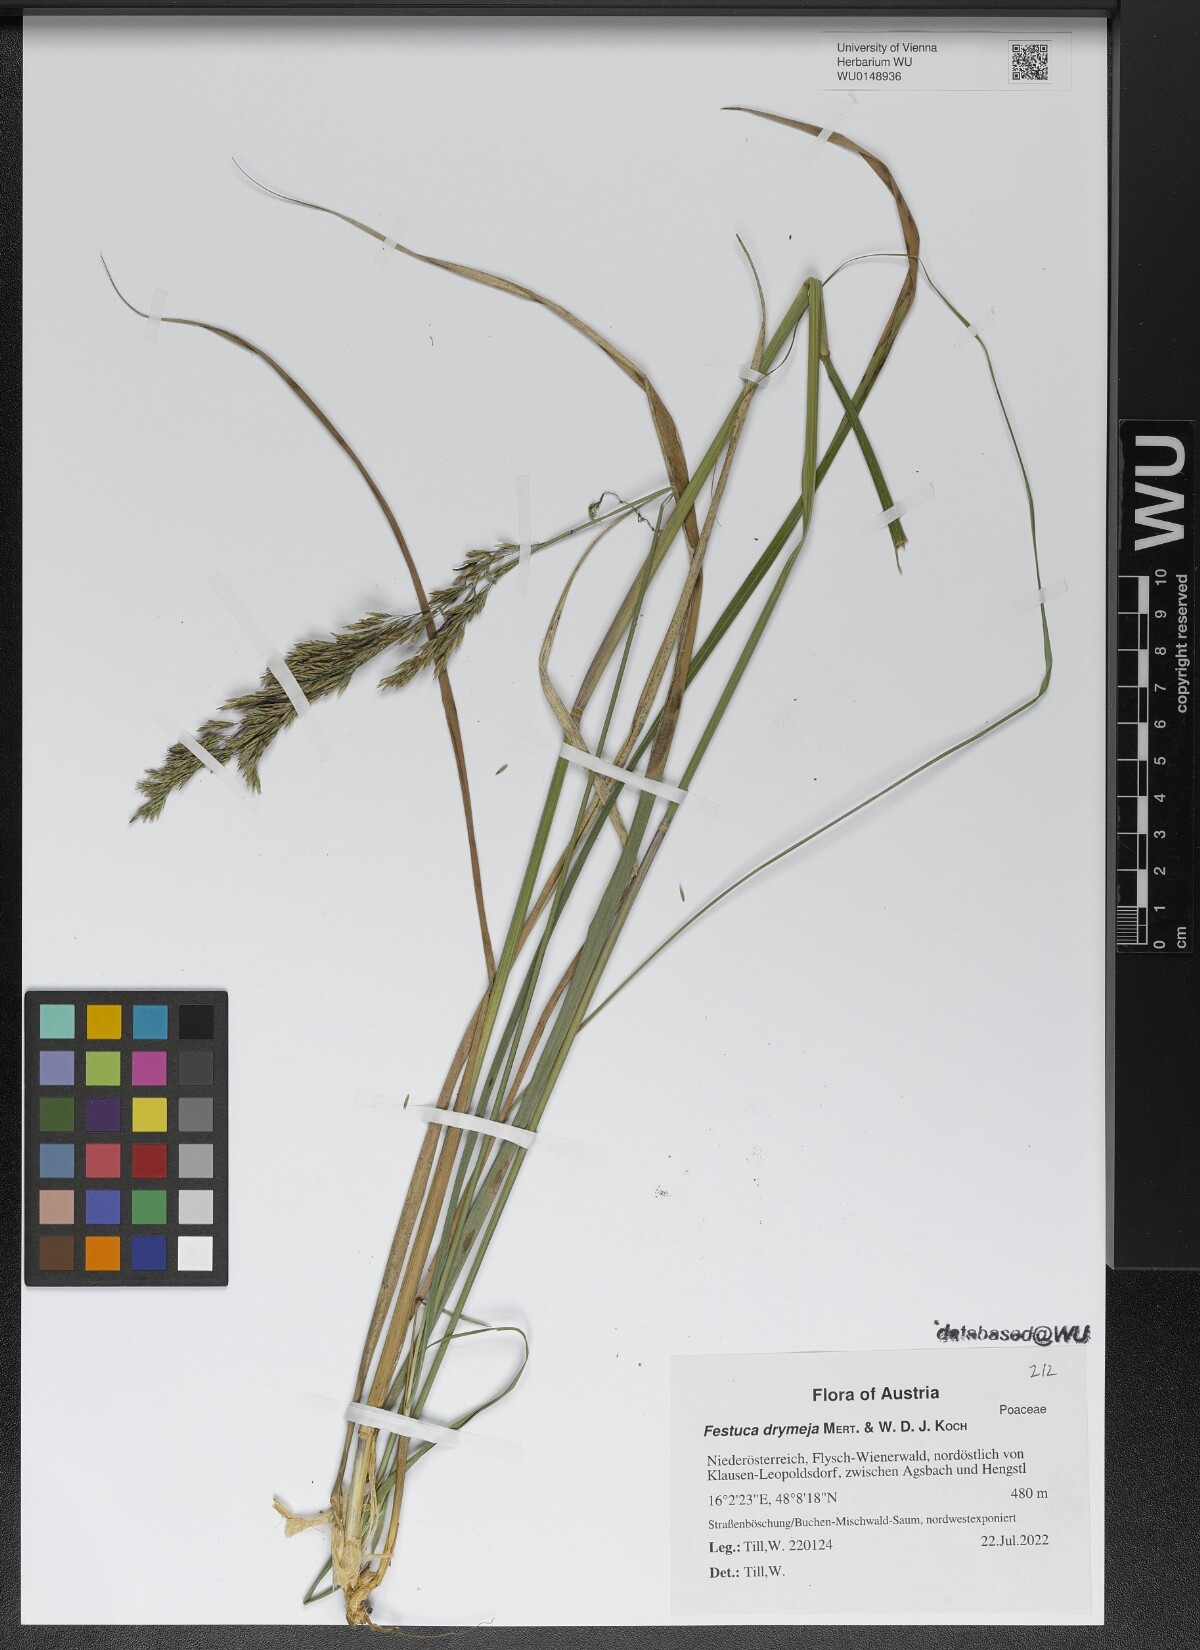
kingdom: Plantae
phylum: Tracheophyta
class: Liliopsida
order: Poales
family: Poaceae
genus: Festuca
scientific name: Festuca drymeja
